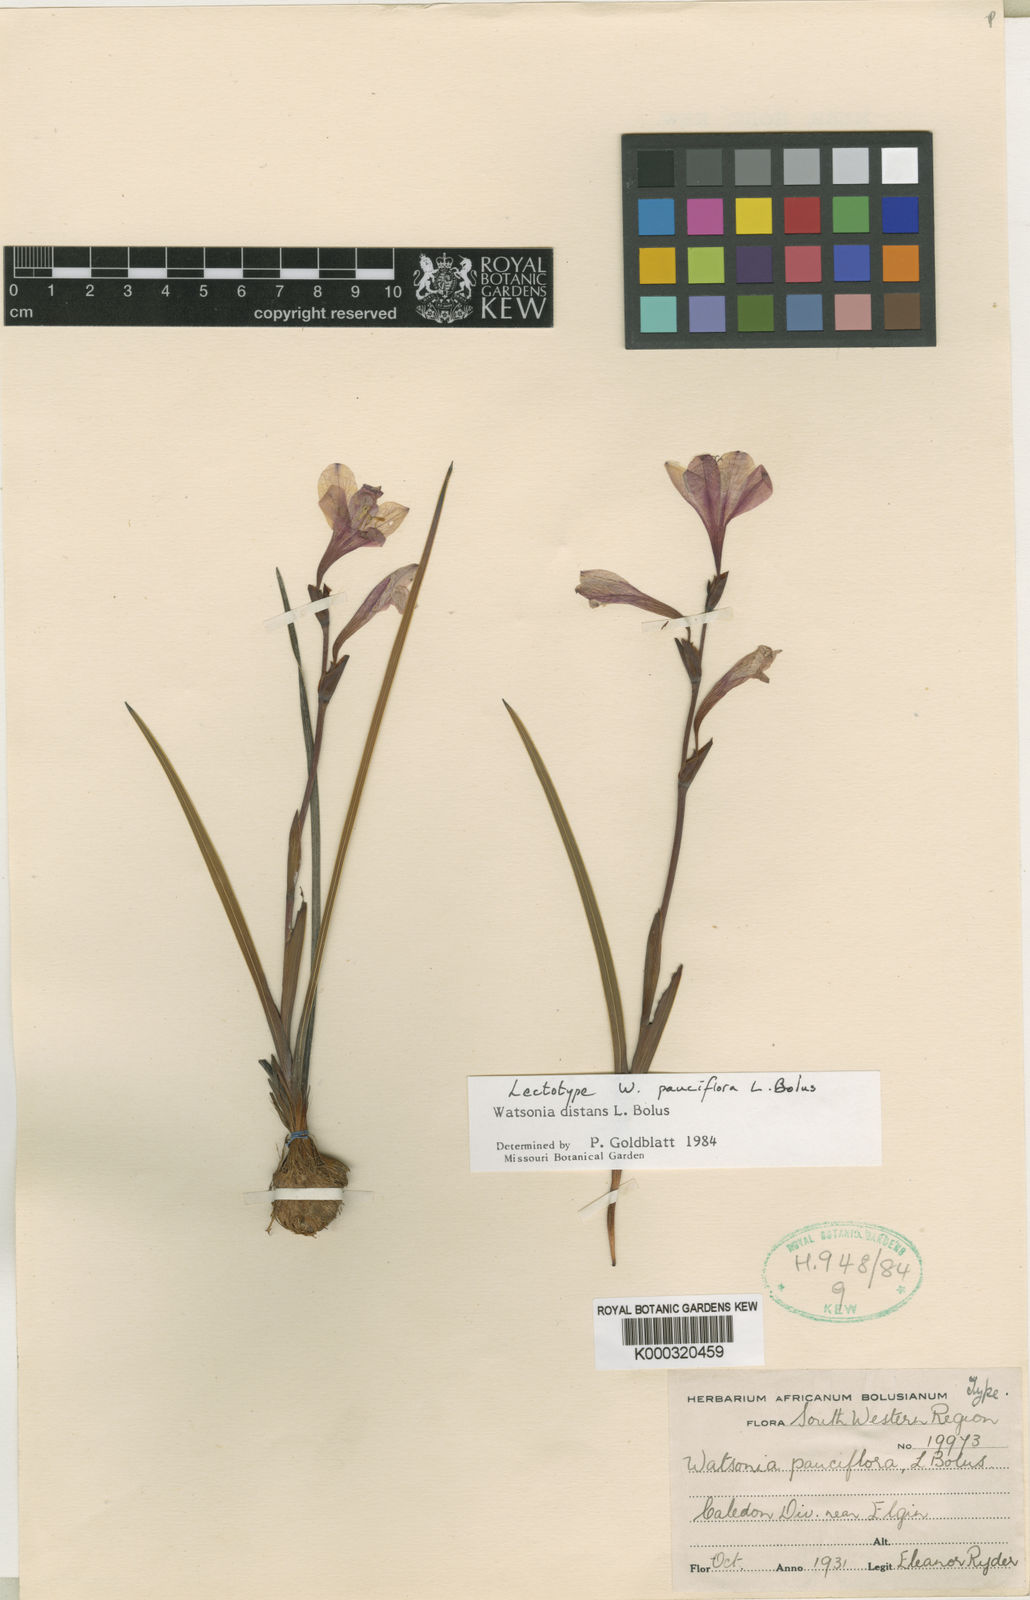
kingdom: Plantae
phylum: Tracheophyta
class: Liliopsida
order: Asparagales
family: Iridaceae
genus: Watsonia
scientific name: Watsonia distans
